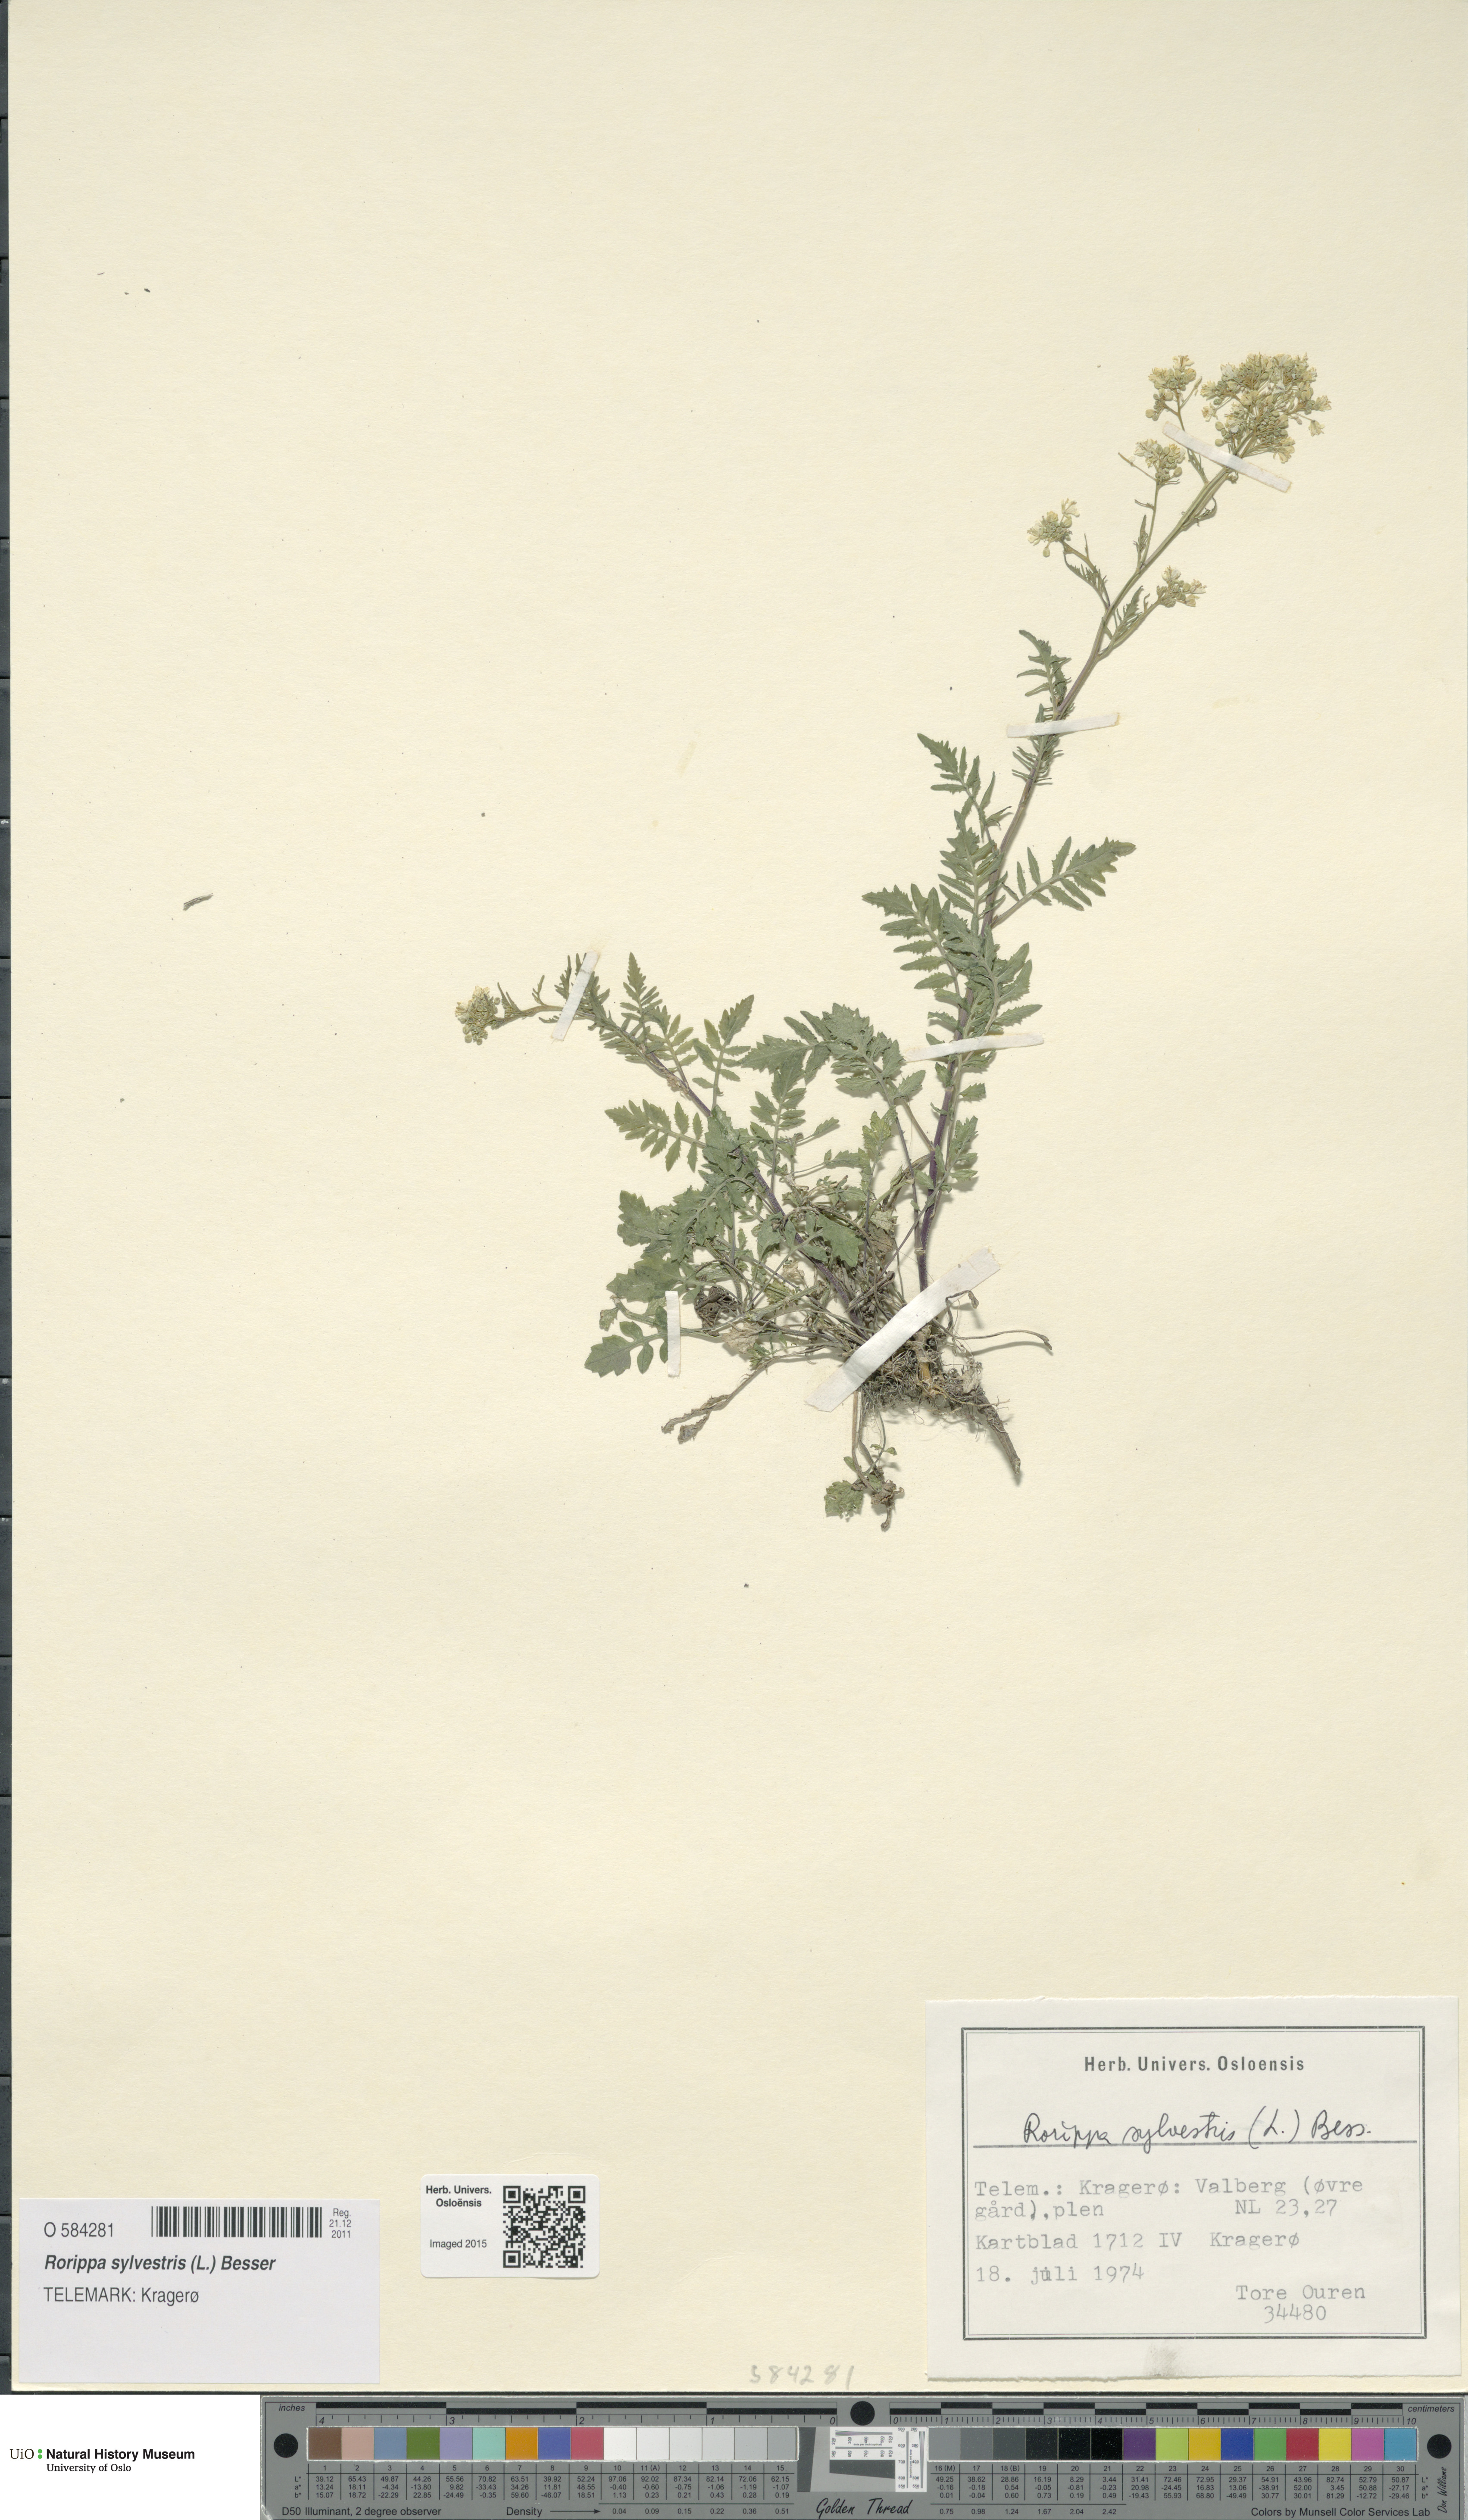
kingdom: Plantae
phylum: Tracheophyta
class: Magnoliopsida
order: Brassicales
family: Brassicaceae
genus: Rorippa
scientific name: Rorippa sylvestris
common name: Creeping yellowcress
